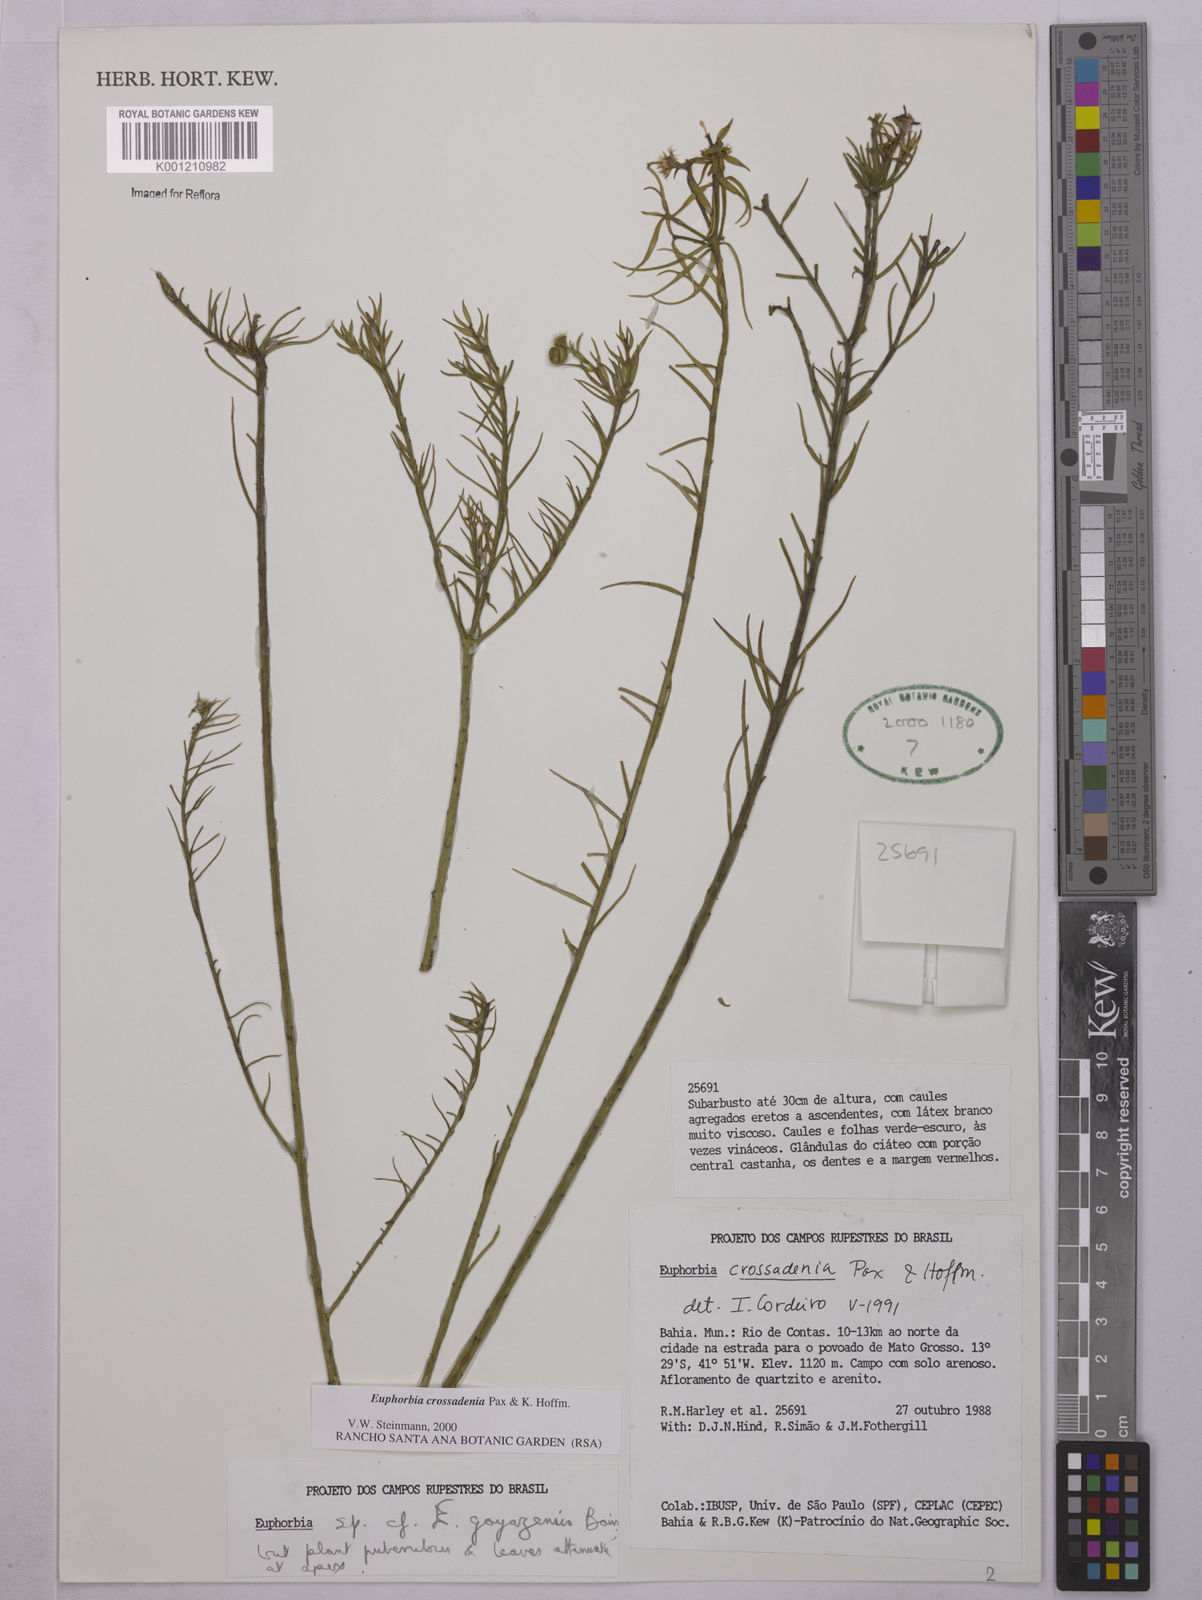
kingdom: Plantae
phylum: Tracheophyta
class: Magnoliopsida
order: Malpighiales
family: Euphorbiaceae
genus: Euphorbia
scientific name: Euphorbia crossadenia
